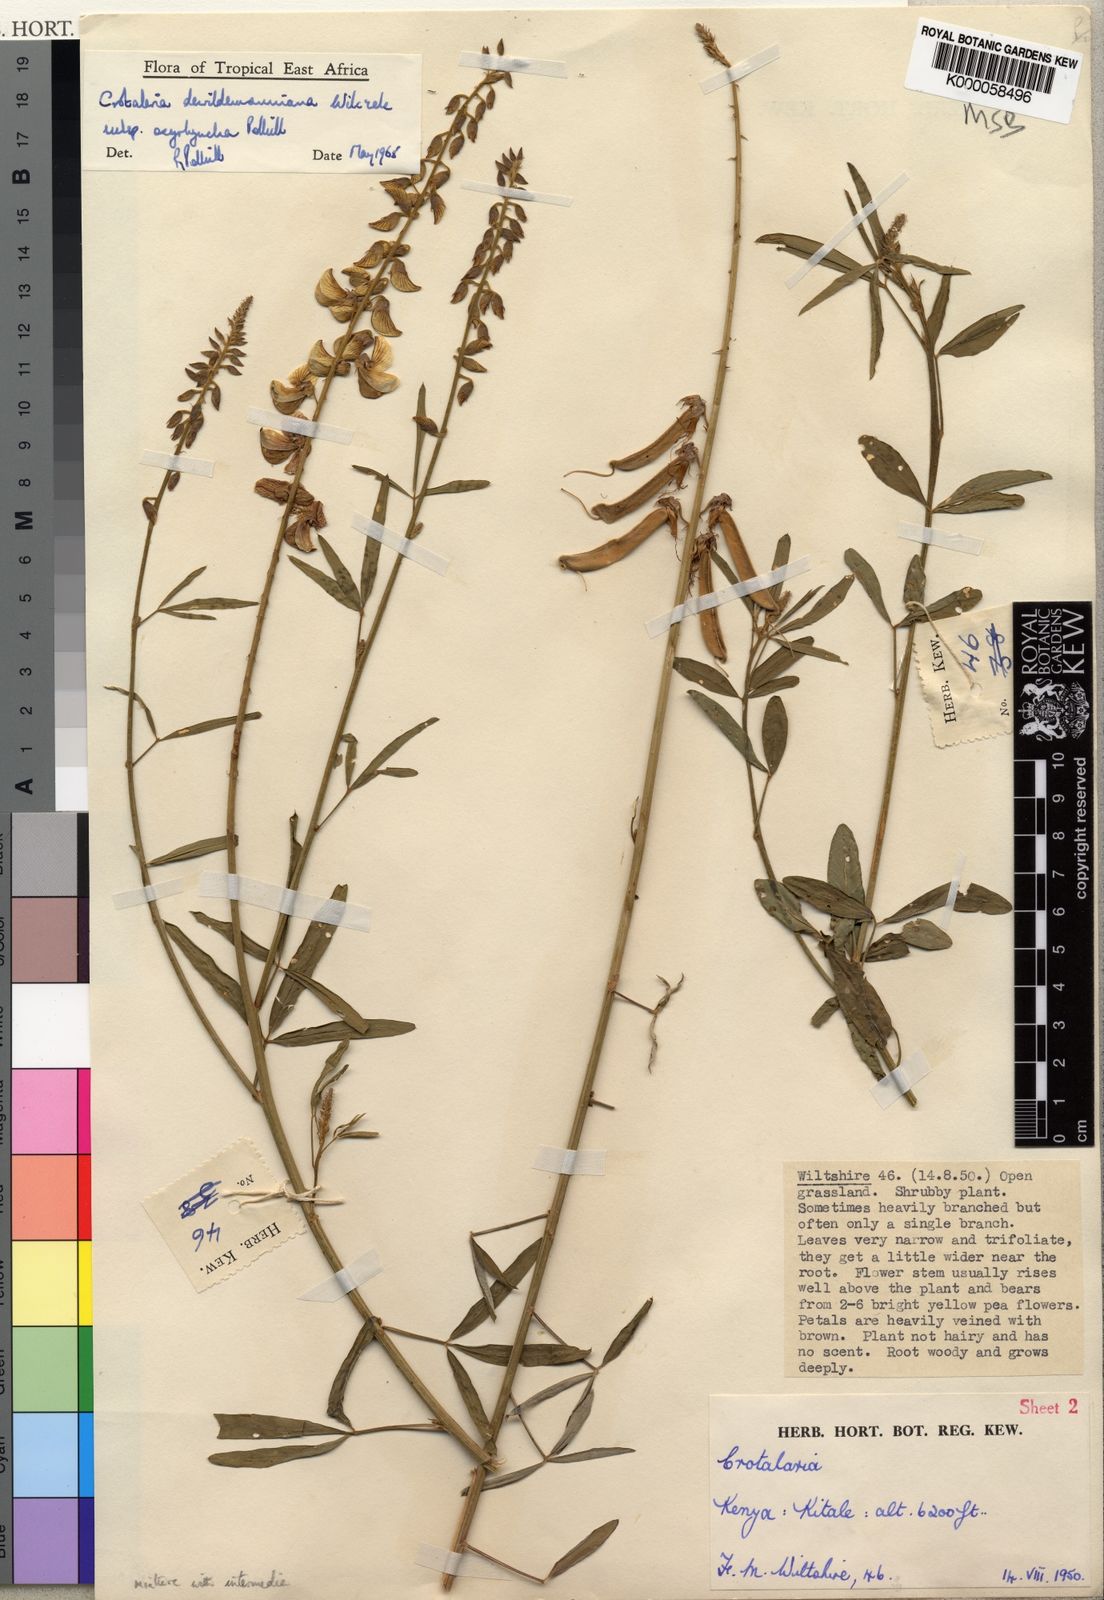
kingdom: Plantae
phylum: Tracheophyta
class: Magnoliopsida
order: Fabales
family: Fabaceae
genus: Crotalaria
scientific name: Crotalaria dewildemaniana
